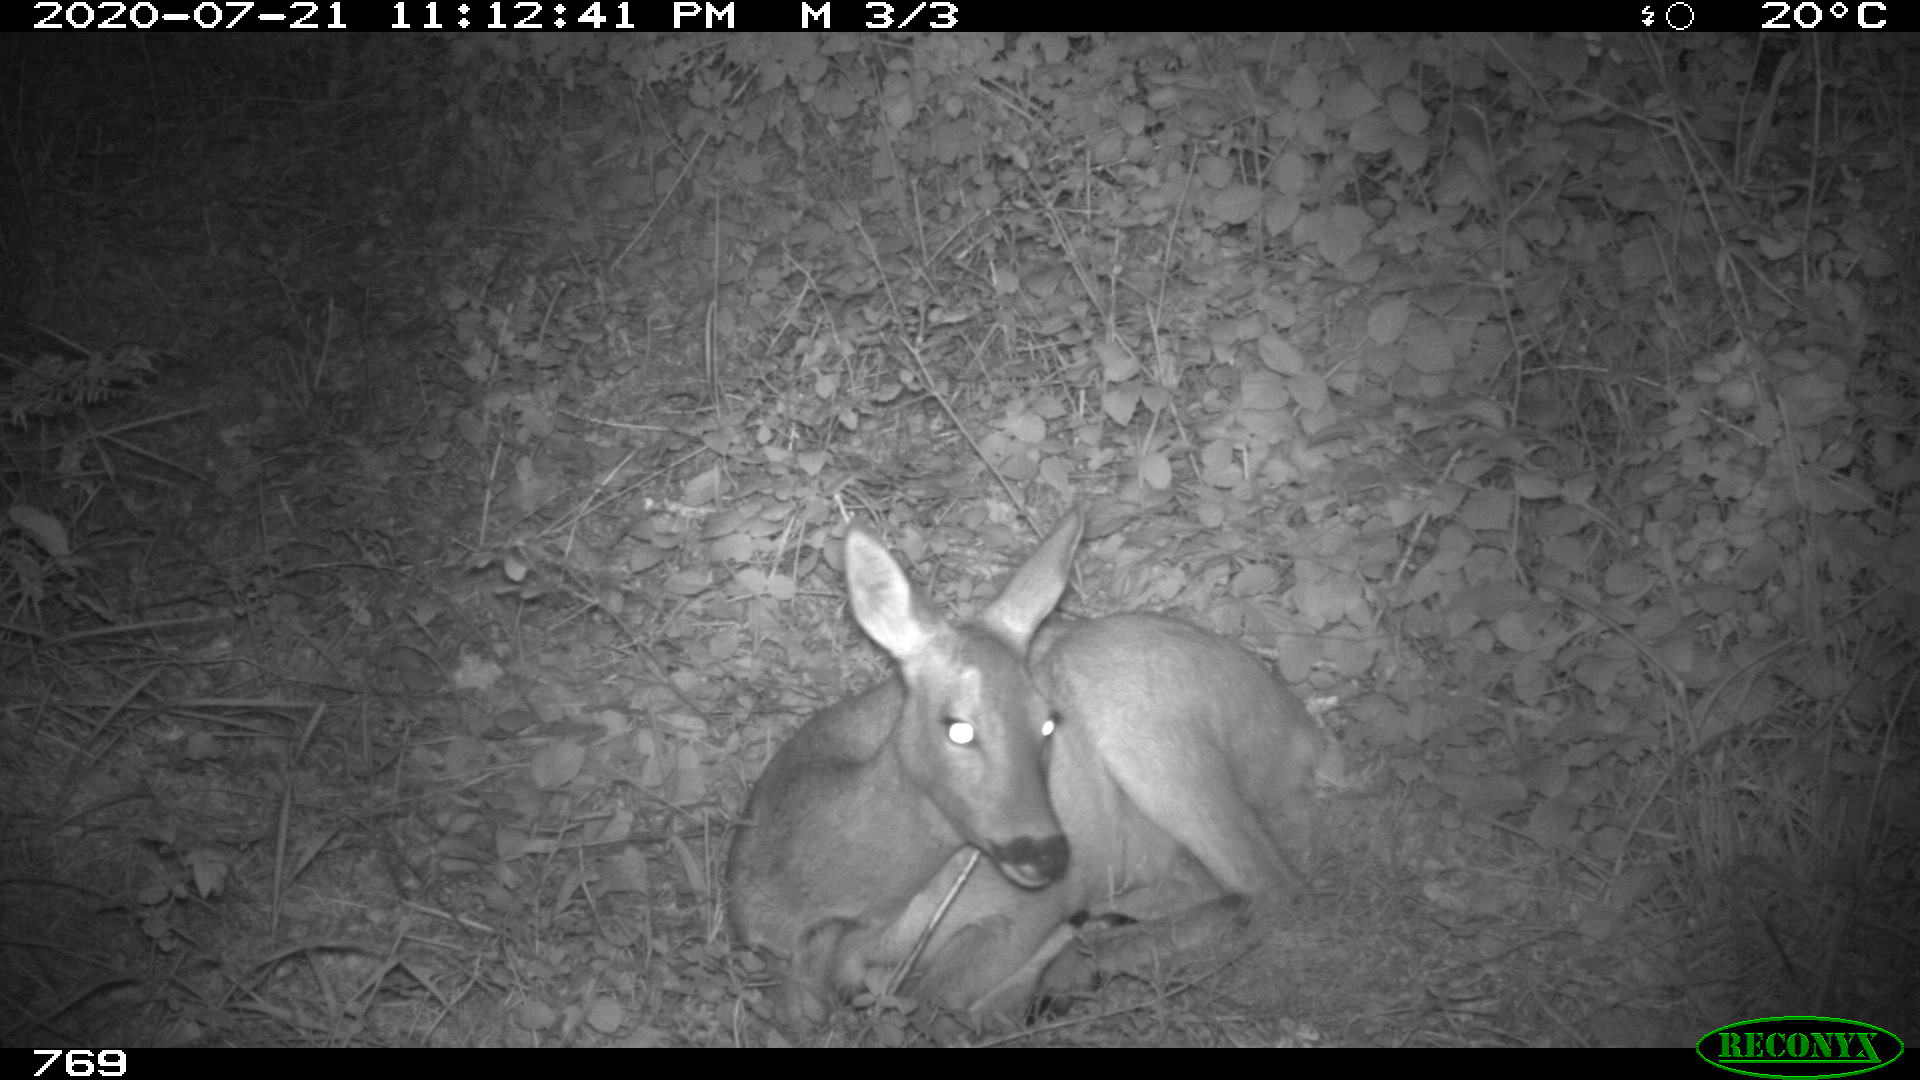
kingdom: Animalia
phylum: Chordata
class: Mammalia
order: Artiodactyla
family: Cervidae
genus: Capreolus
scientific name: Capreolus capreolus
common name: Western roe deer
